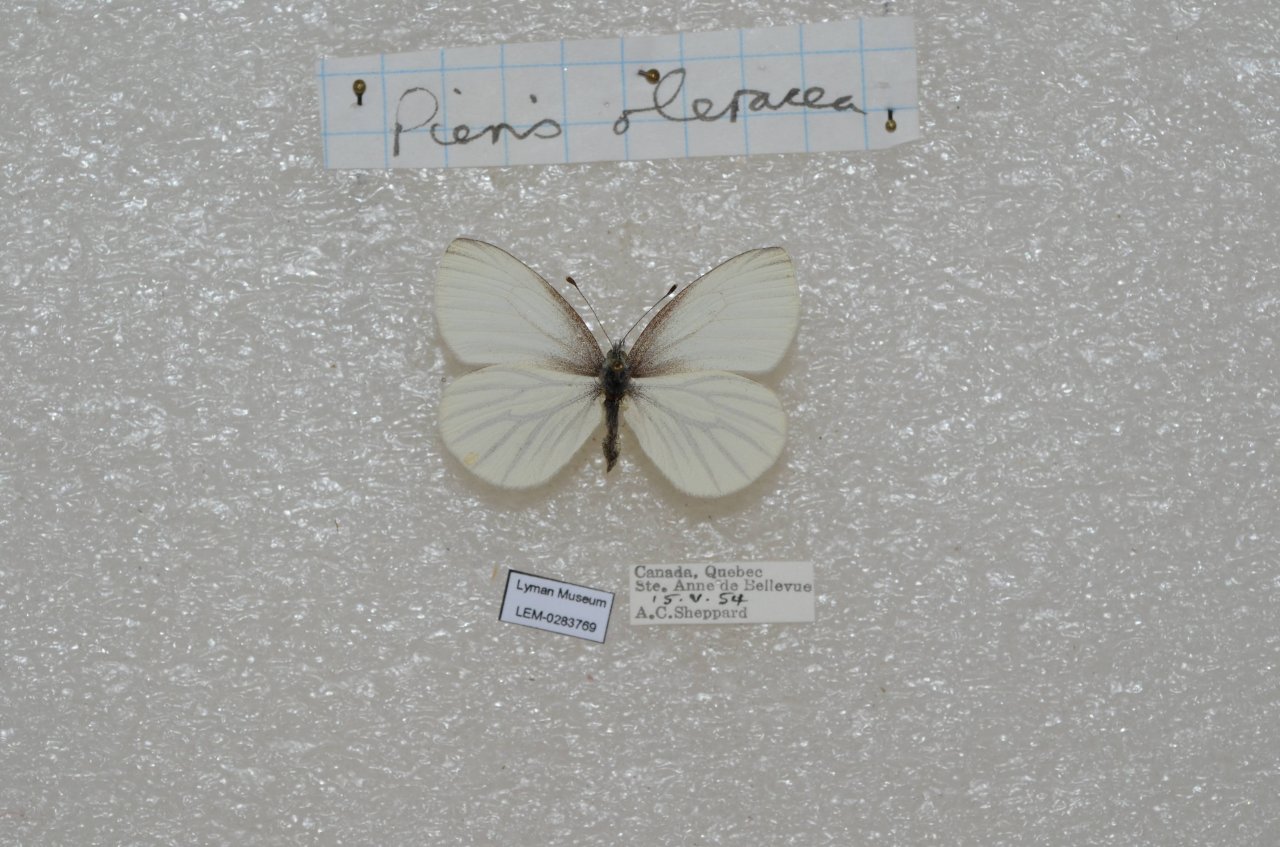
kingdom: Animalia
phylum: Arthropoda
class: Insecta
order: Lepidoptera
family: Pieridae
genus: Pieris
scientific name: Pieris oleracea
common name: Mustard White
